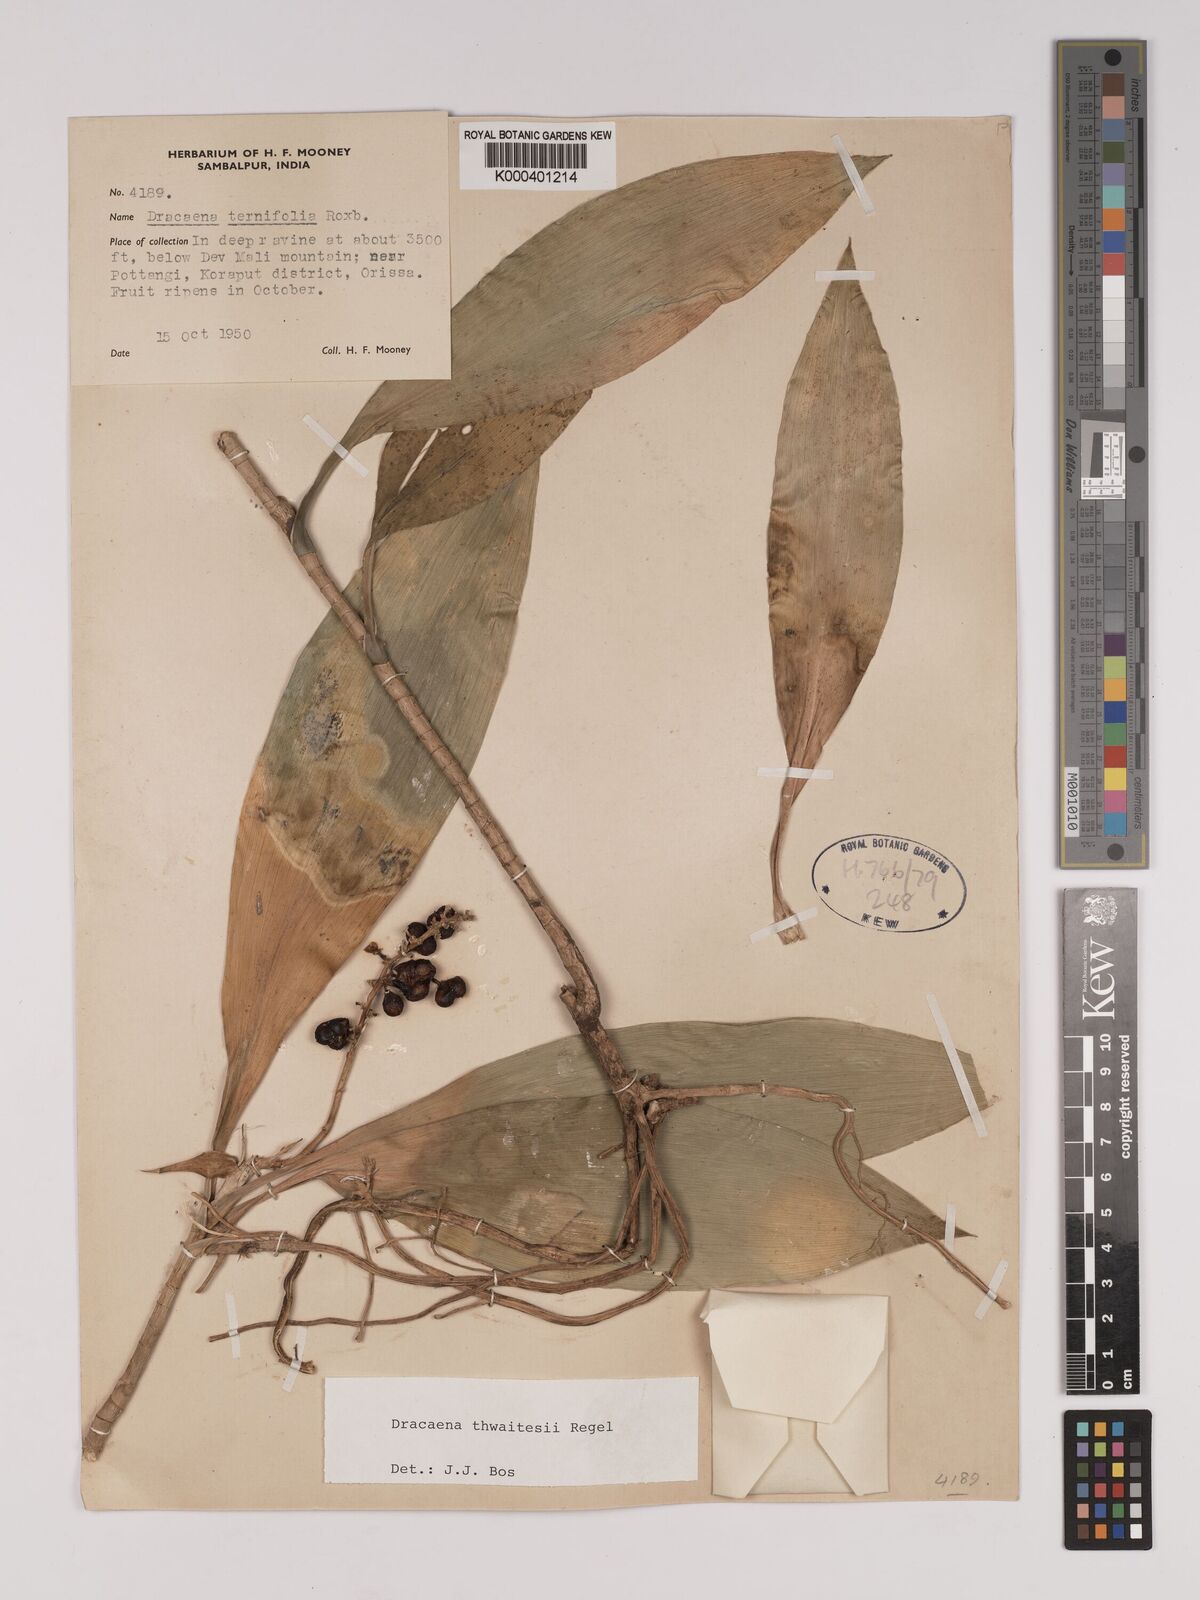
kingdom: Plantae
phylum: Tracheophyta
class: Liliopsida
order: Asparagales
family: Asparagaceae
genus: Dracaena
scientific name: Dracaena thwaitesii
